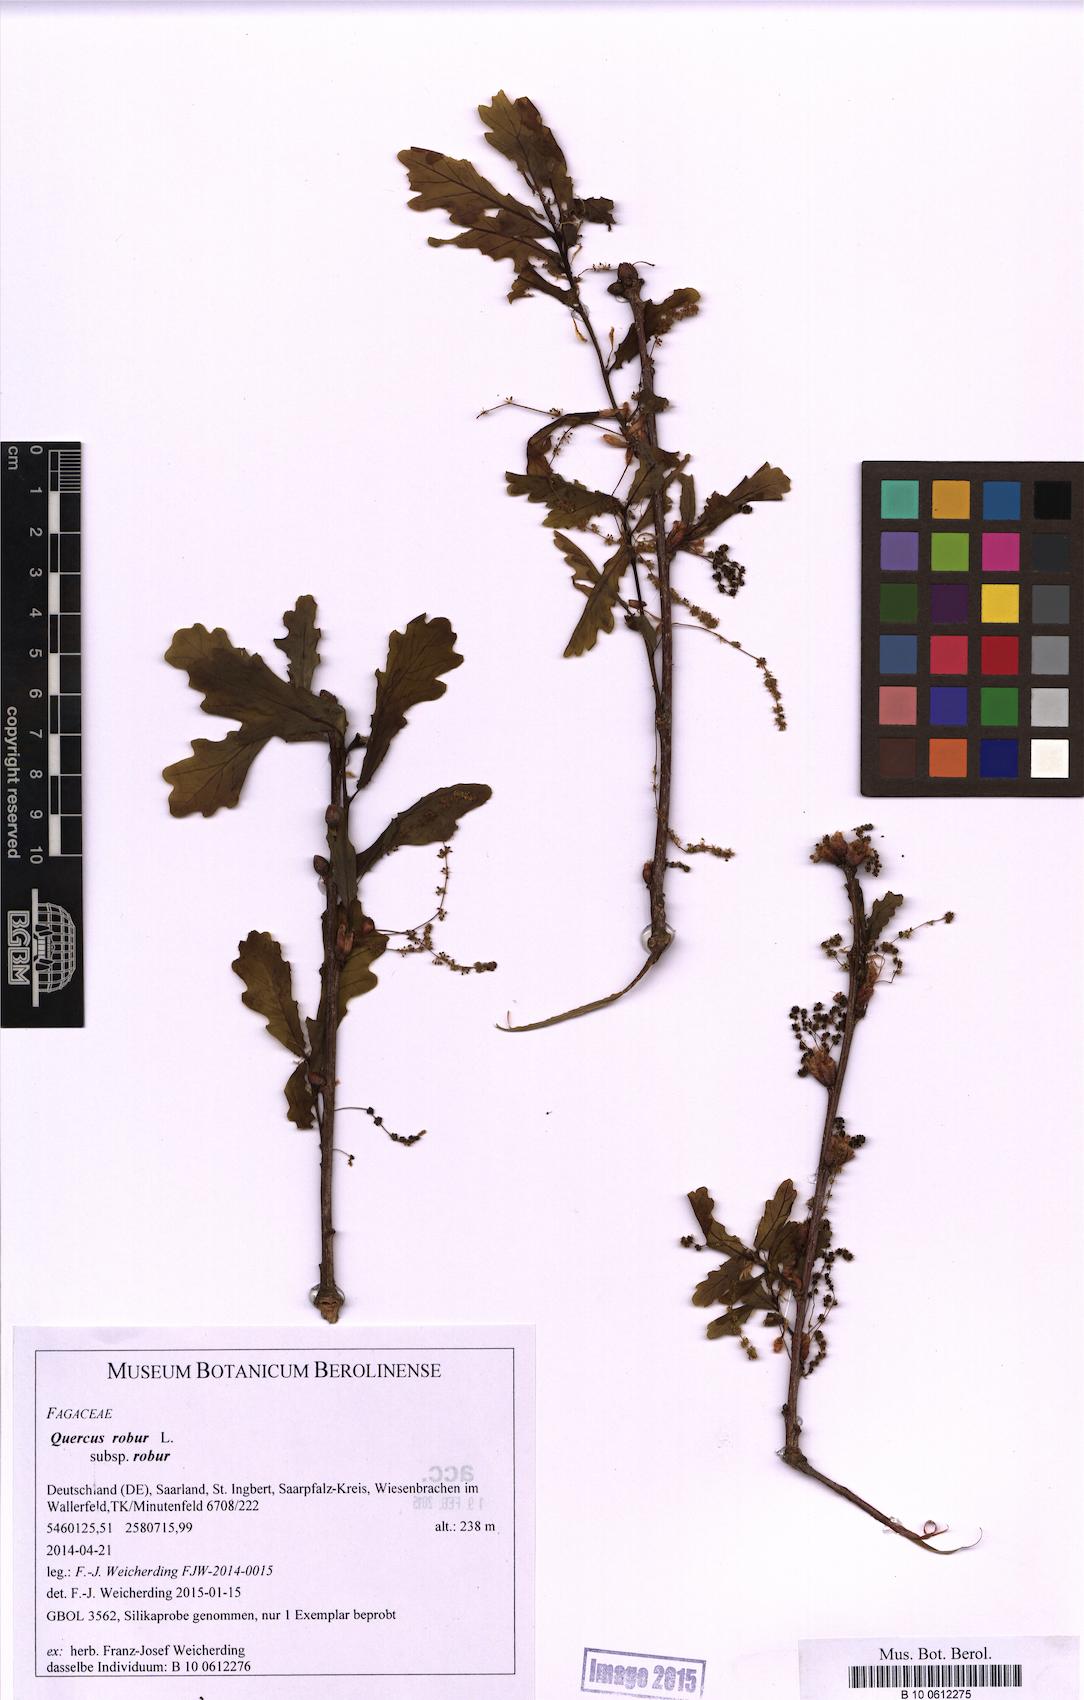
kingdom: Plantae
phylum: Tracheophyta
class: Magnoliopsida
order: Fagales
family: Fagaceae
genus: Quercus
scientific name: Quercus robur
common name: Pedunculate oak
